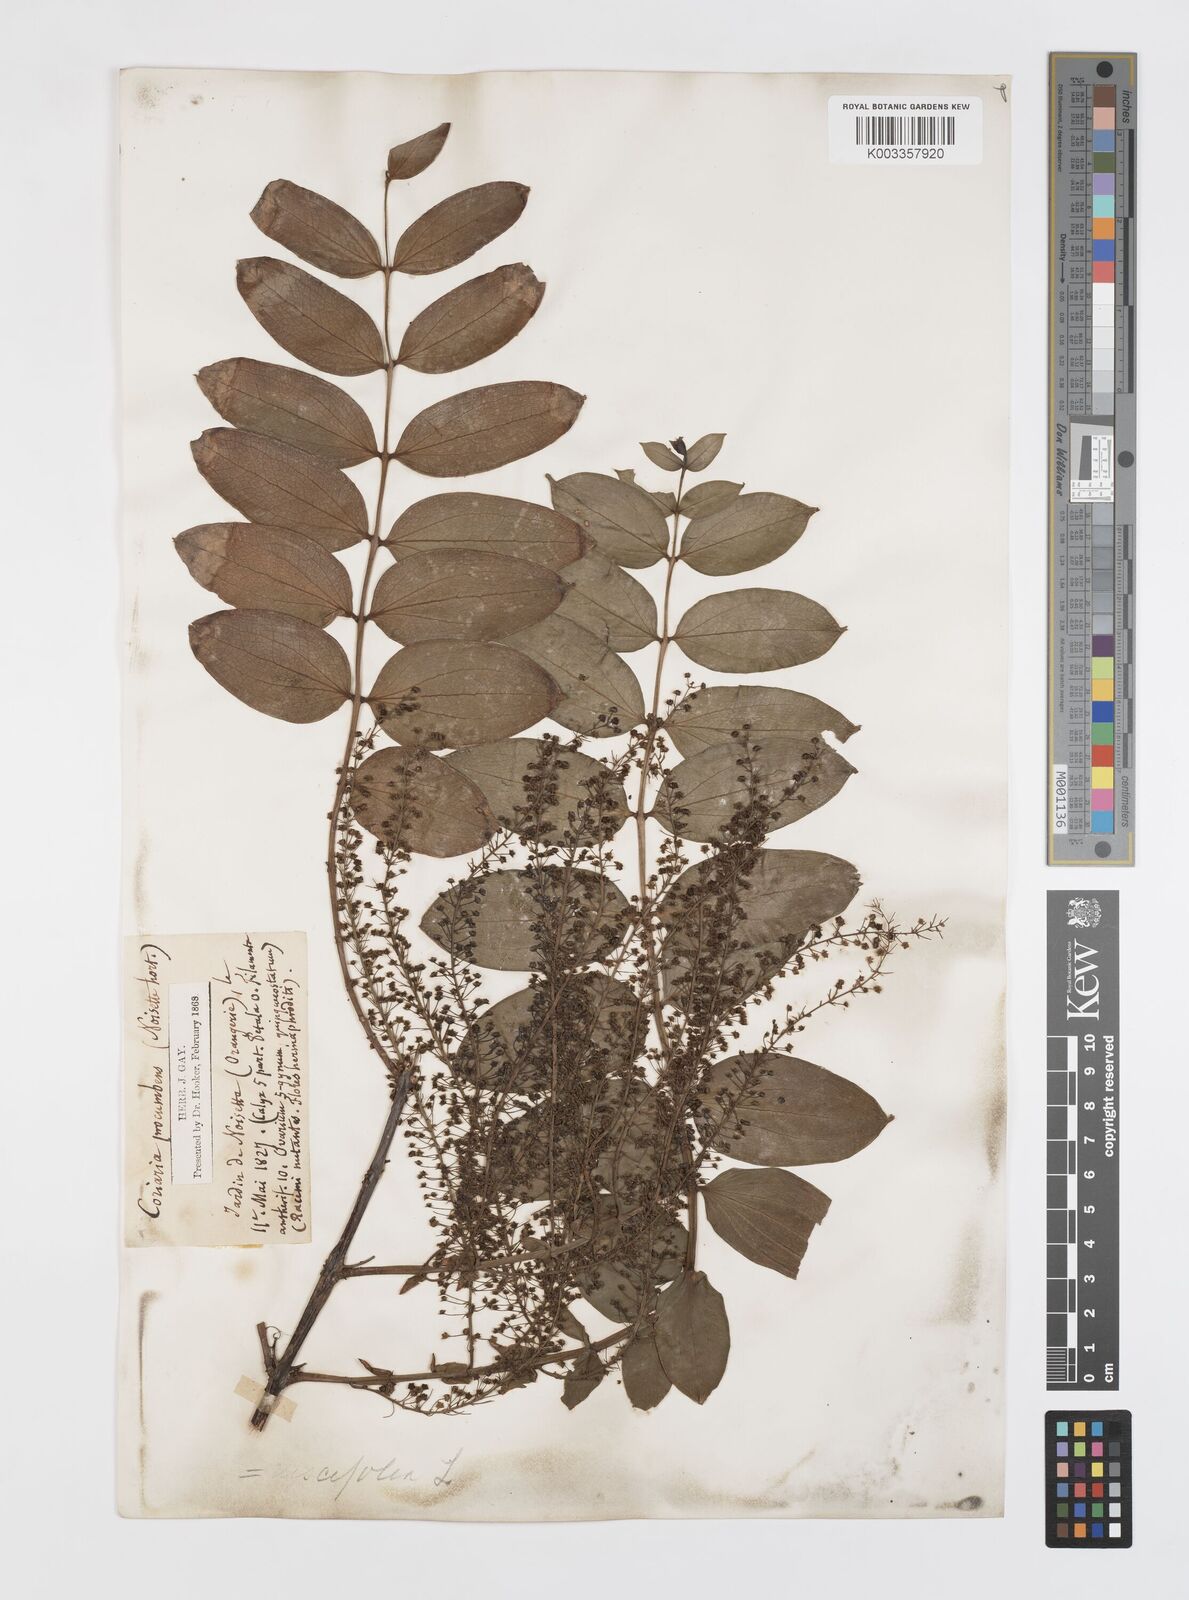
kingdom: Plantae
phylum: Tracheophyta
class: Magnoliopsida
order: Cucurbitales
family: Coriariaceae
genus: Coriaria
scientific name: Coriaria ruscifolia
